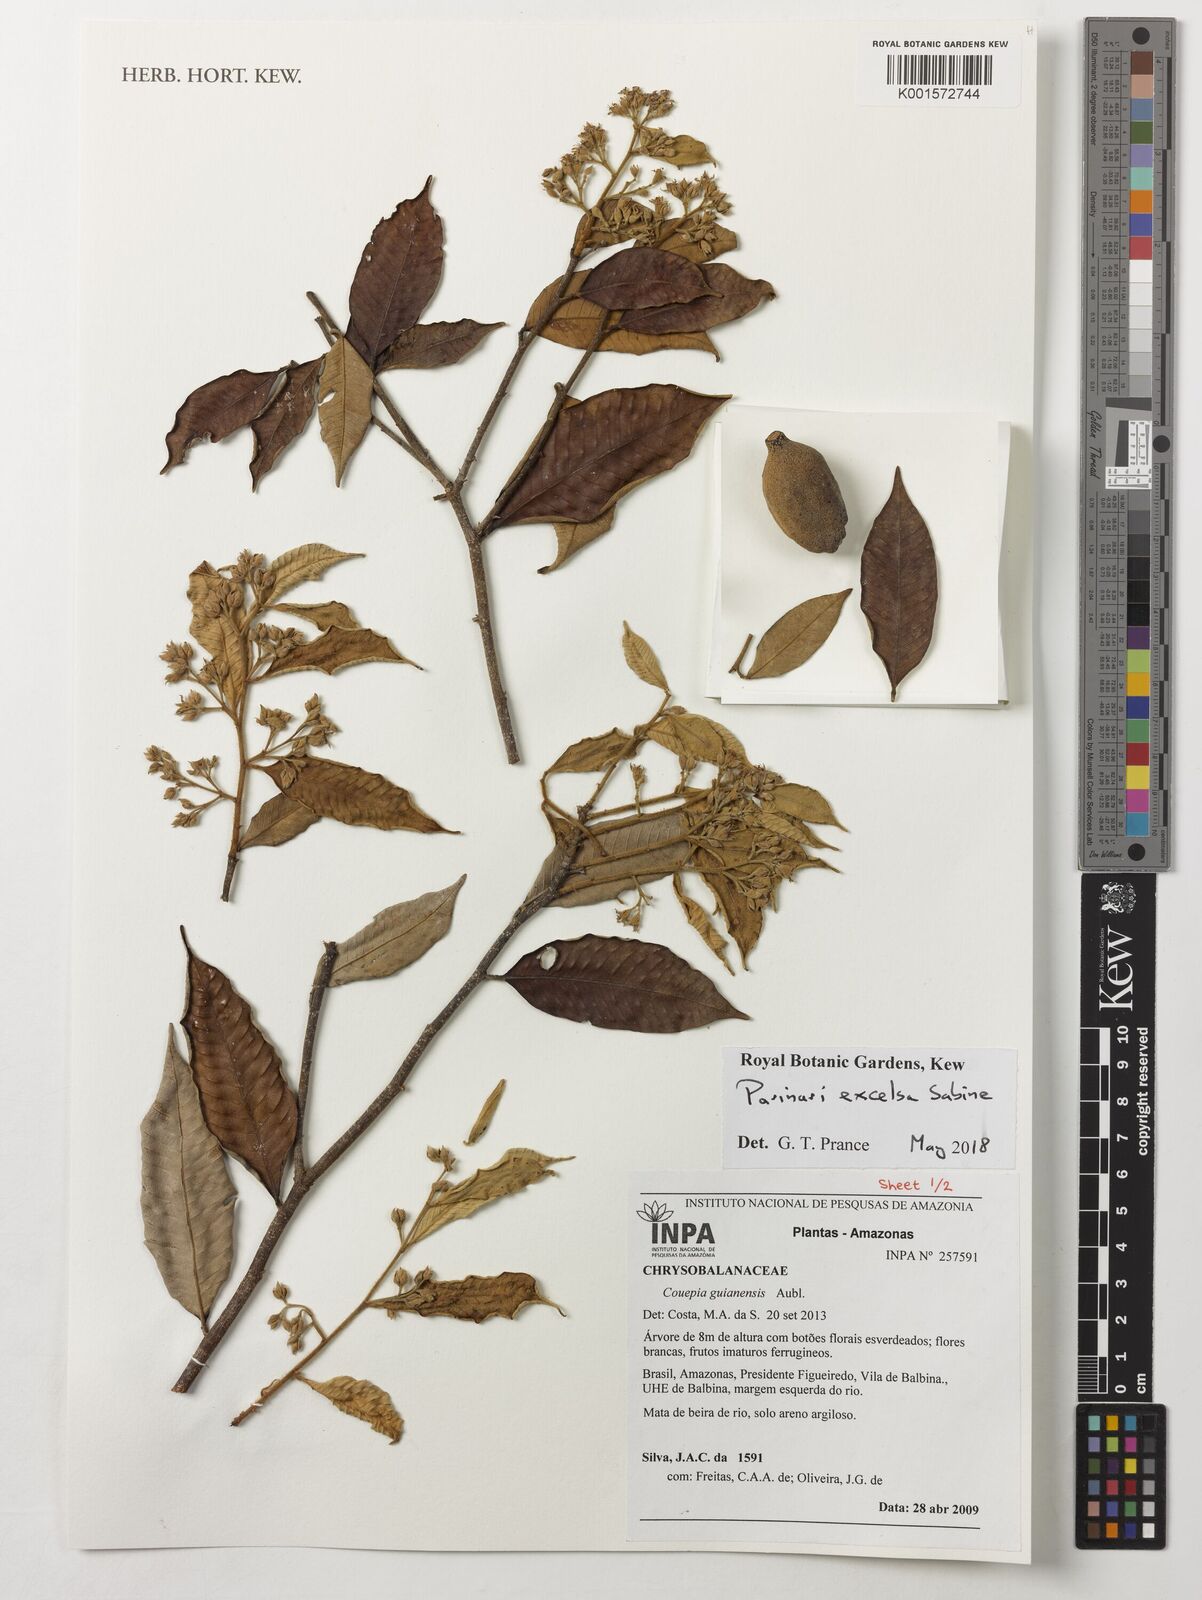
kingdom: Plantae
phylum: Tracheophyta
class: Magnoliopsida
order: Malpighiales
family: Chrysobalanaceae
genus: Parinari
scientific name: Parinari excelsa
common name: Guinea-plum
